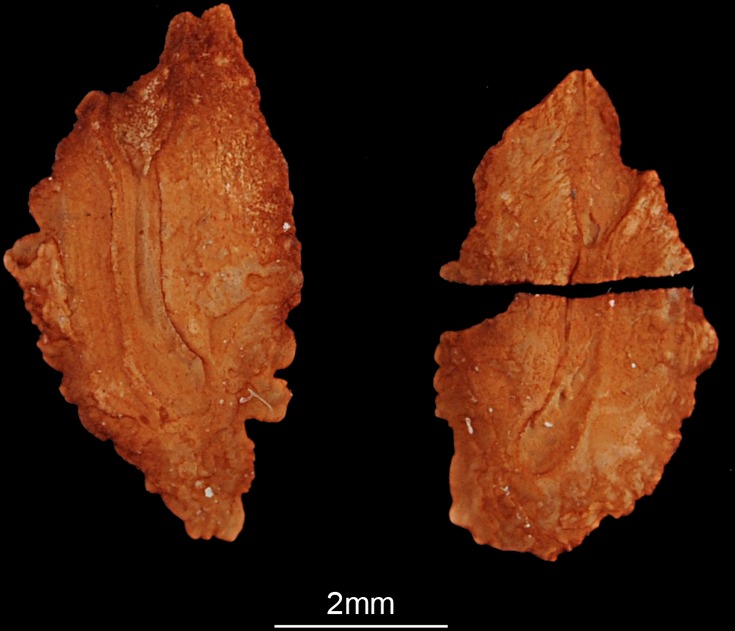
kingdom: Animalia
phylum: Chordata
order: Siluriformes
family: Schilbeidae
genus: Schilbe
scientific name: Schilbe mystus
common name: Silver catfish
